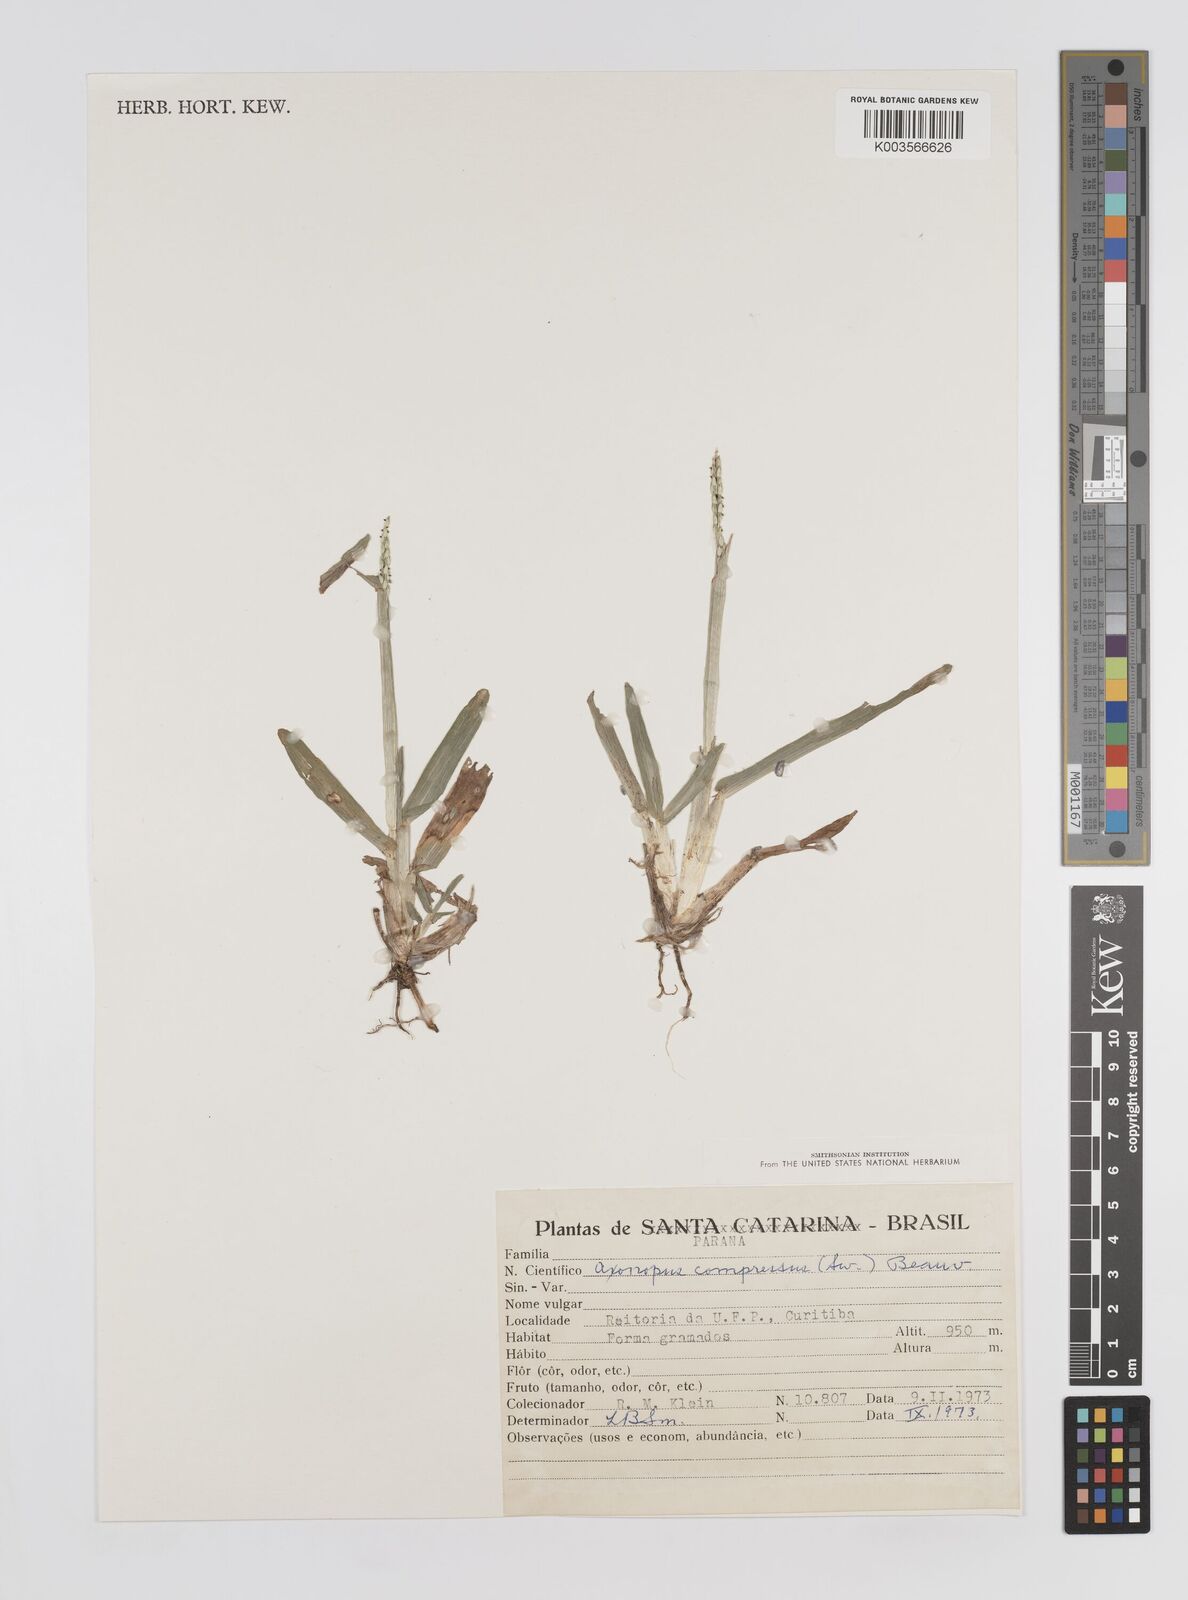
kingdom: Plantae
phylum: Tracheophyta
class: Liliopsida
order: Poales
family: Poaceae
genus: Axonopus
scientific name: Axonopus compressus
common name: American carpet grass
